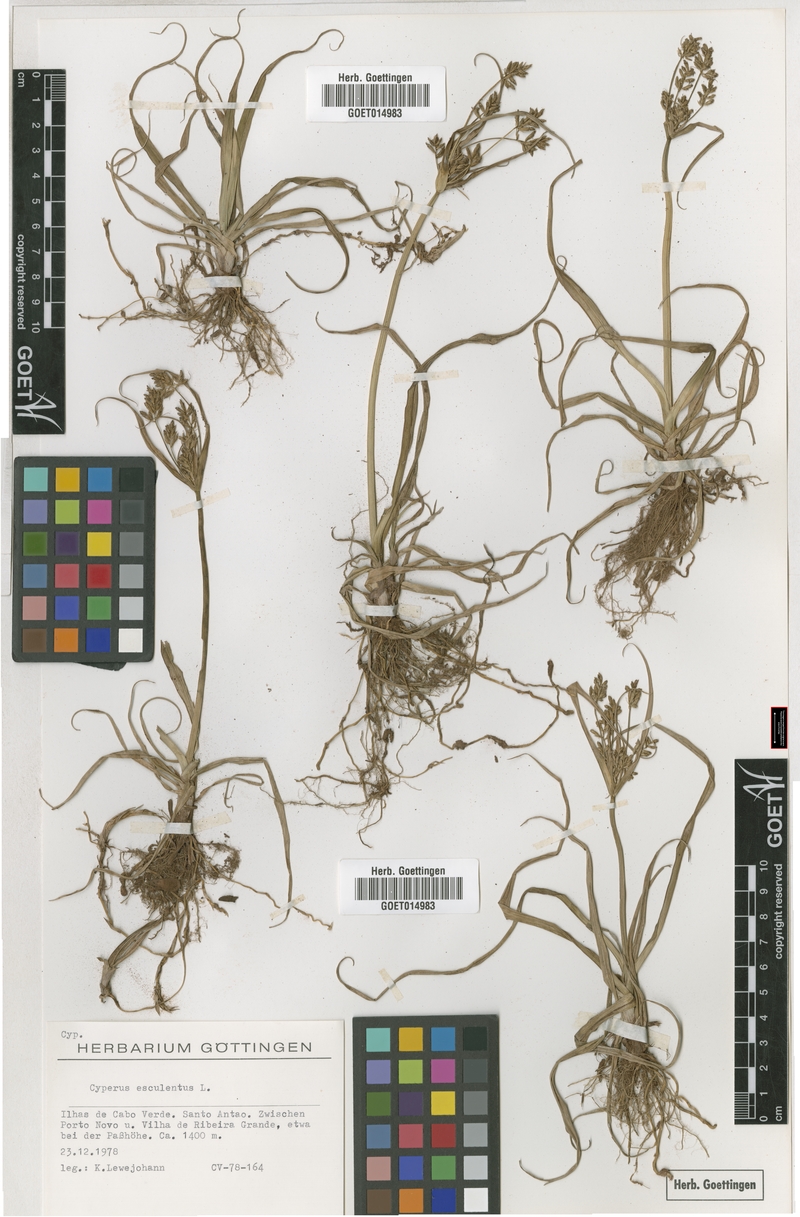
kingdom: Plantae
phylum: Tracheophyta
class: Liliopsida
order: Poales
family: Cyperaceae
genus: Cyperus
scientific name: Cyperus esculentus
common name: Yellow nutsedge
